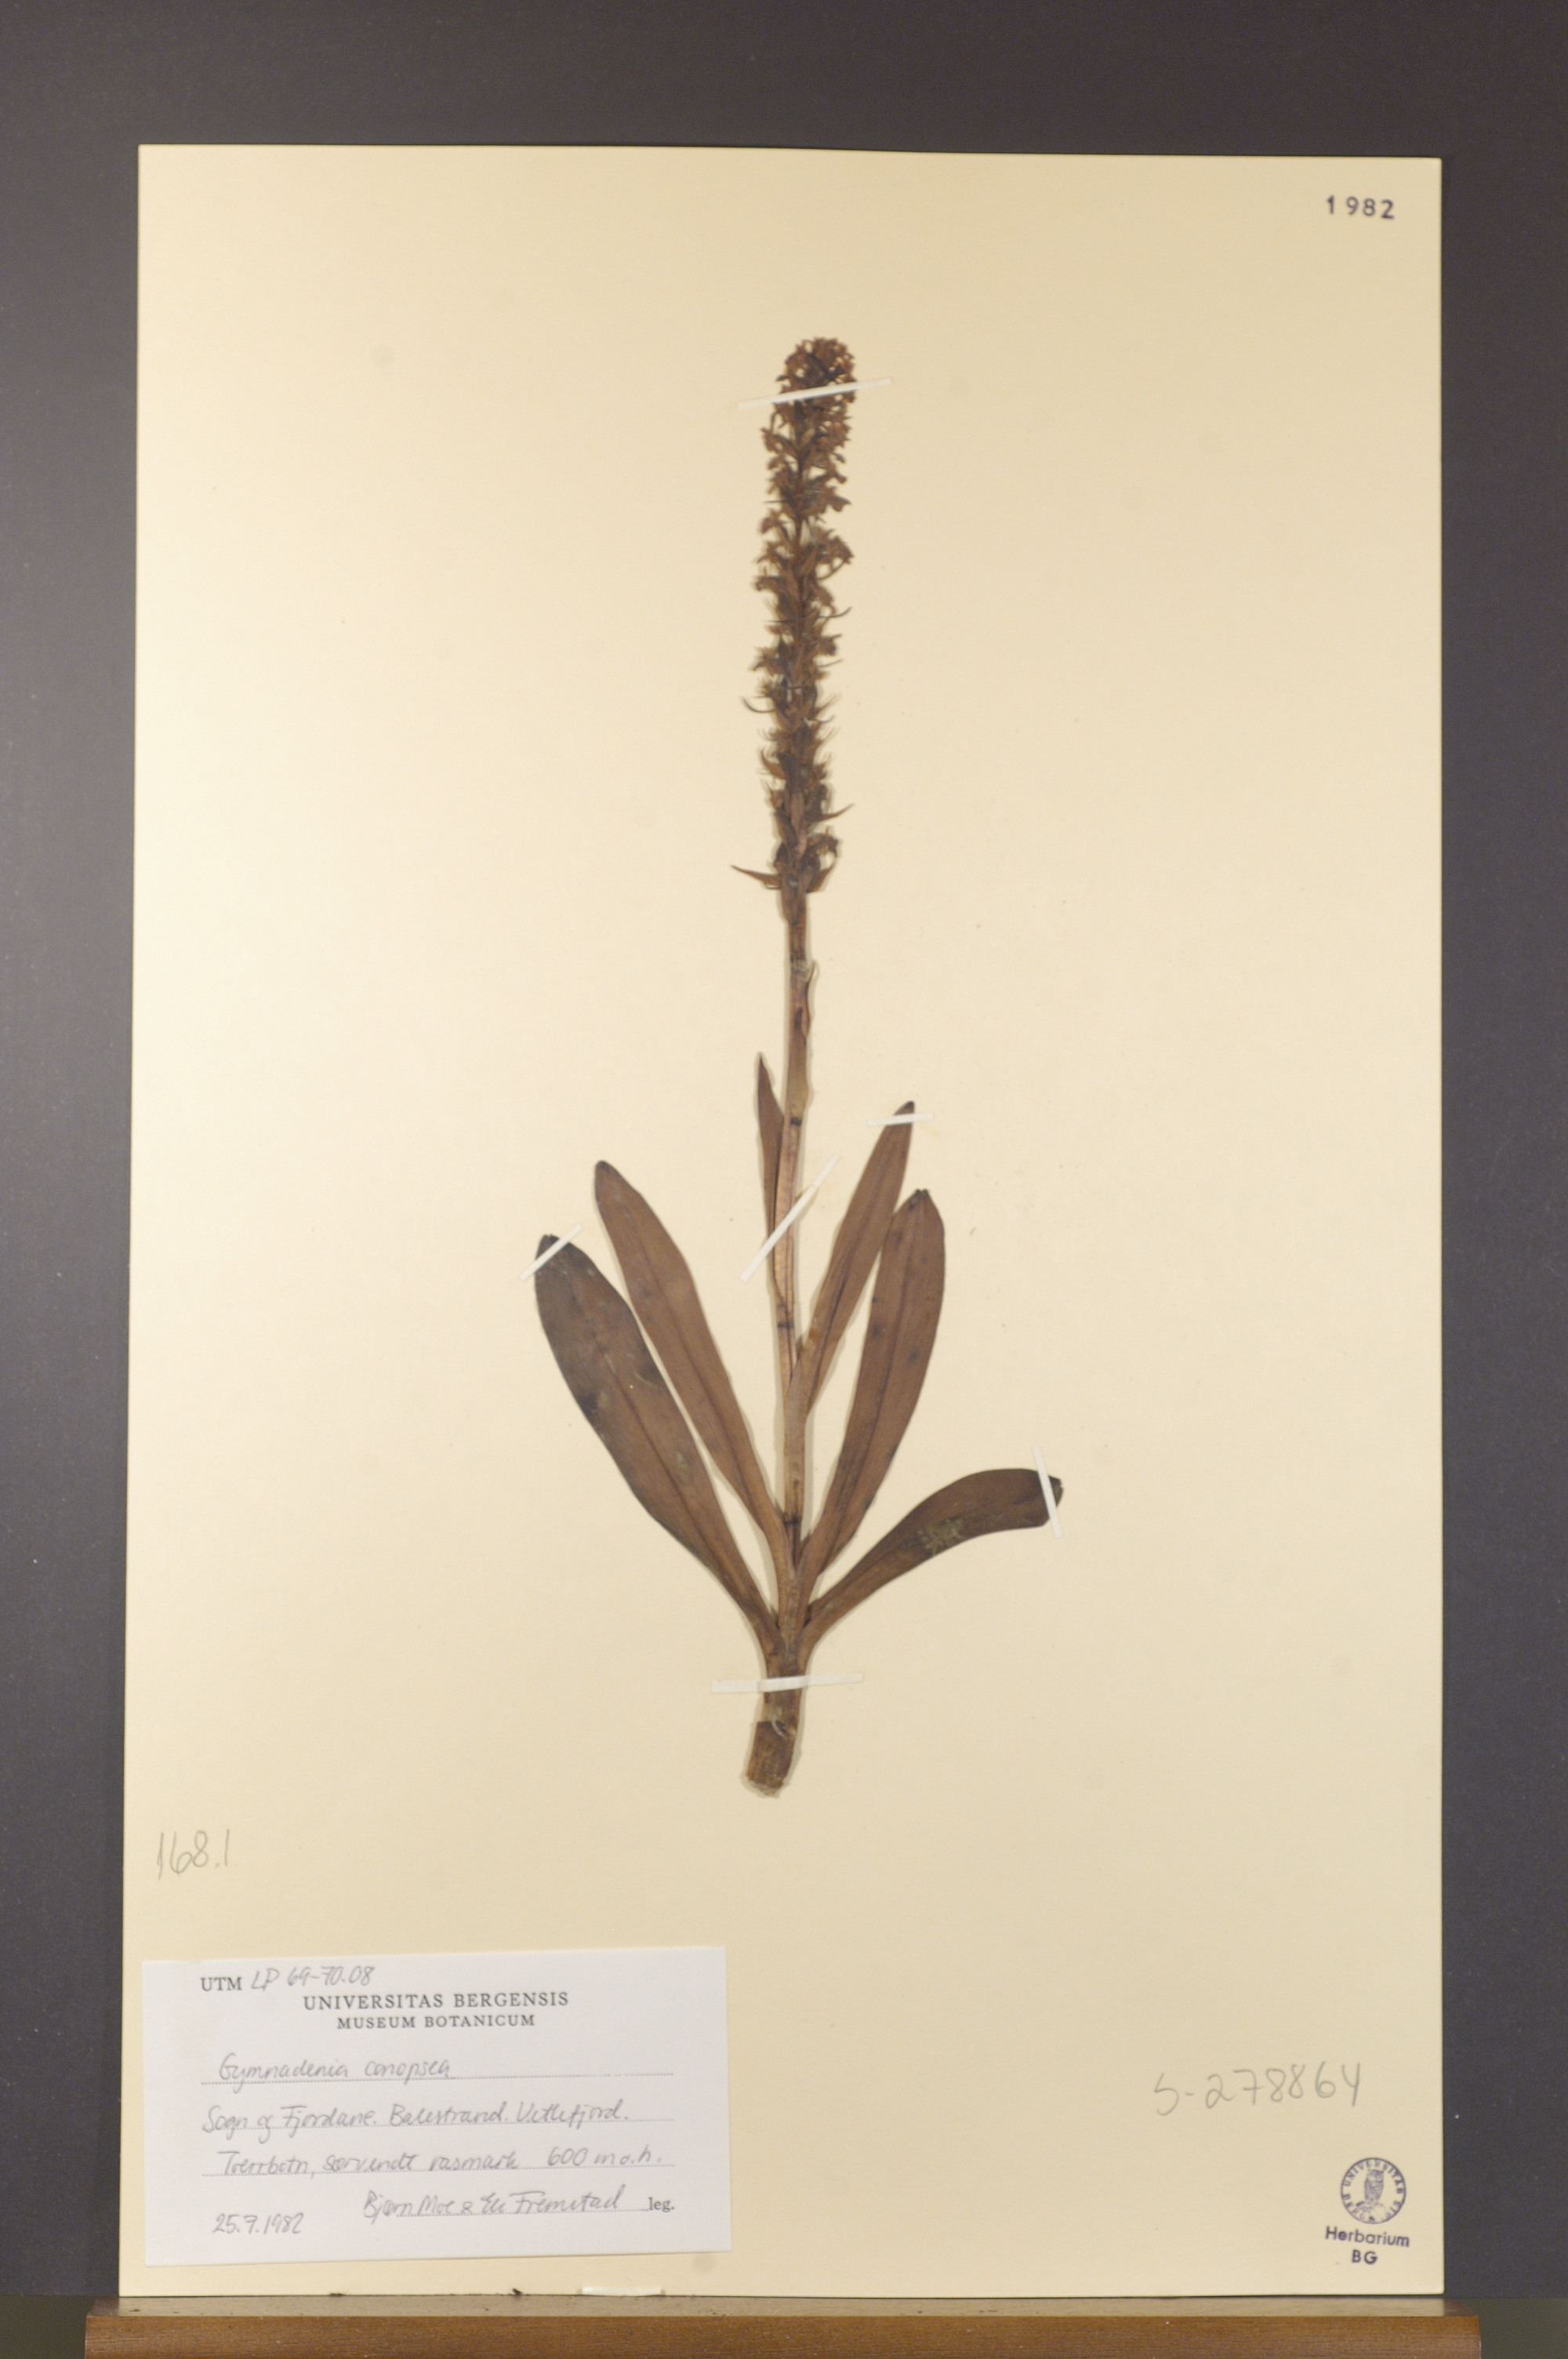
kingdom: Plantae
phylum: Tracheophyta
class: Liliopsida
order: Asparagales
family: Orchidaceae
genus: Gymnadenia
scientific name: Gymnadenia conopsea
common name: Fragrant orchid
